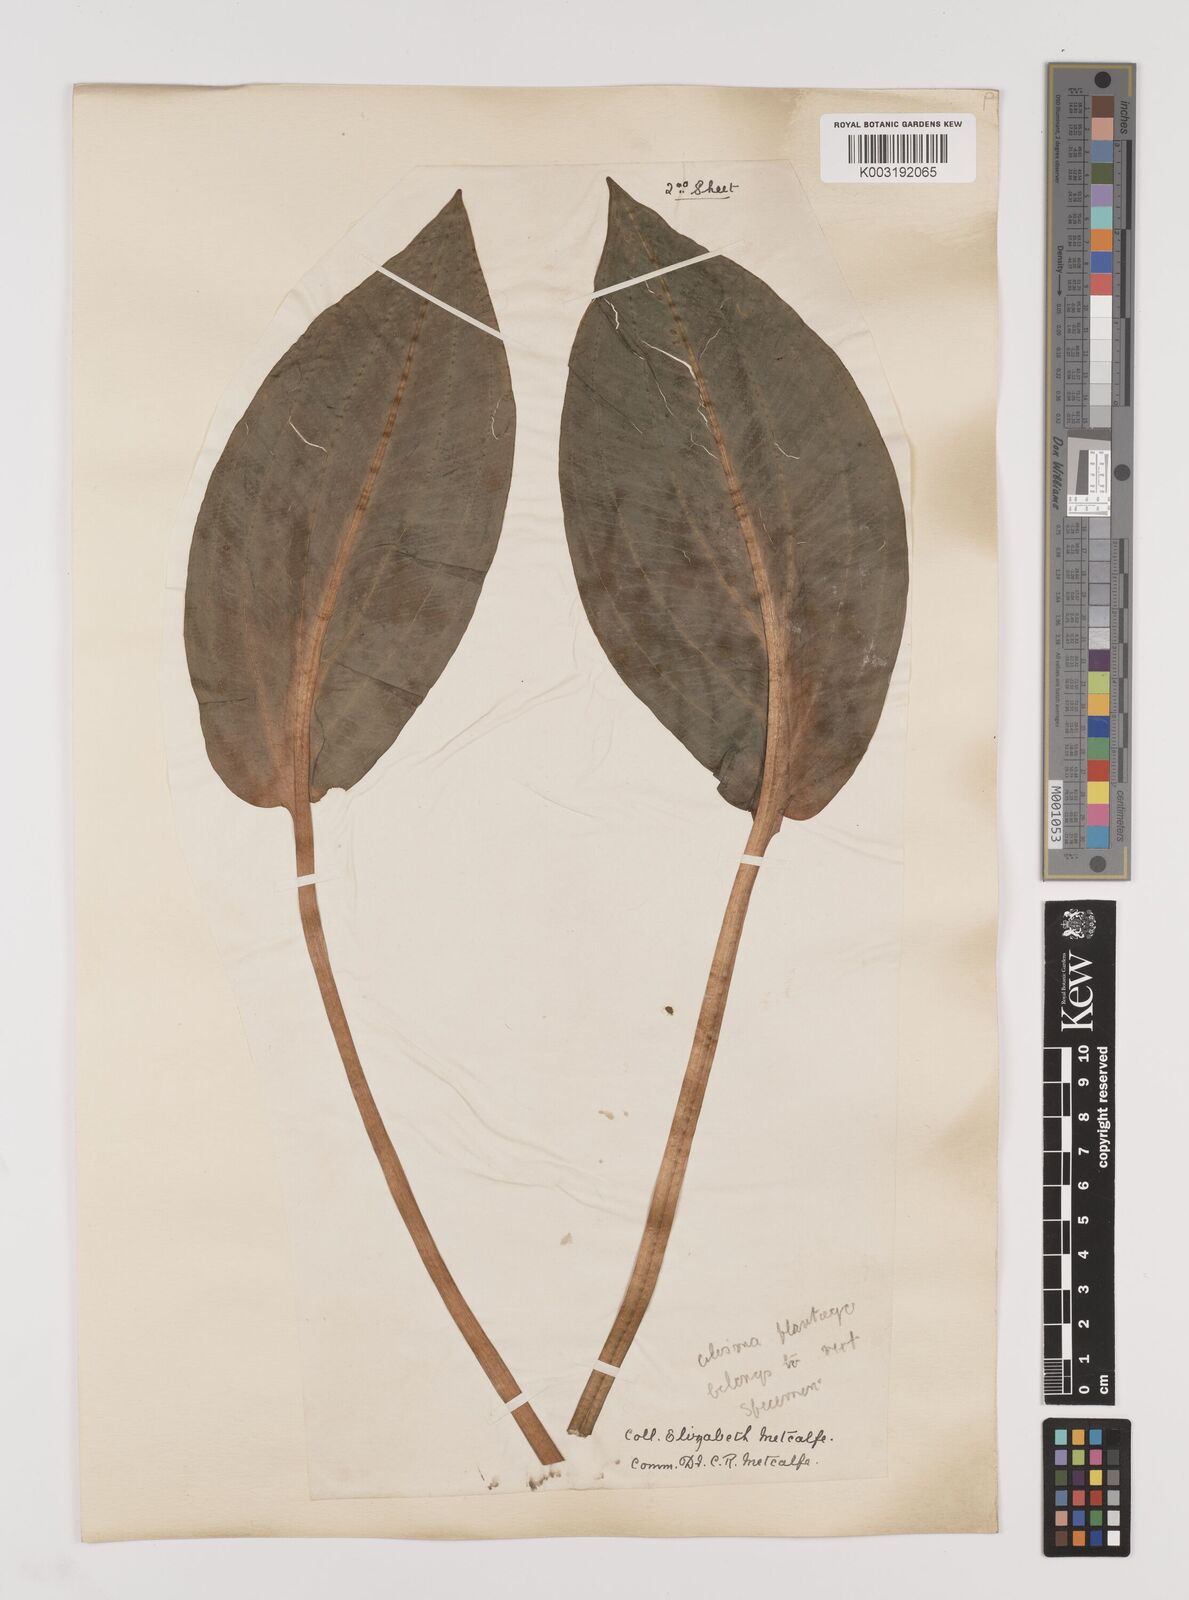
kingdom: Plantae
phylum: Tracheophyta
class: Liliopsida
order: Alismatales
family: Alismataceae
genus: Alisma
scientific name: Alisma plantago-aquatica
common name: Water-plantain
